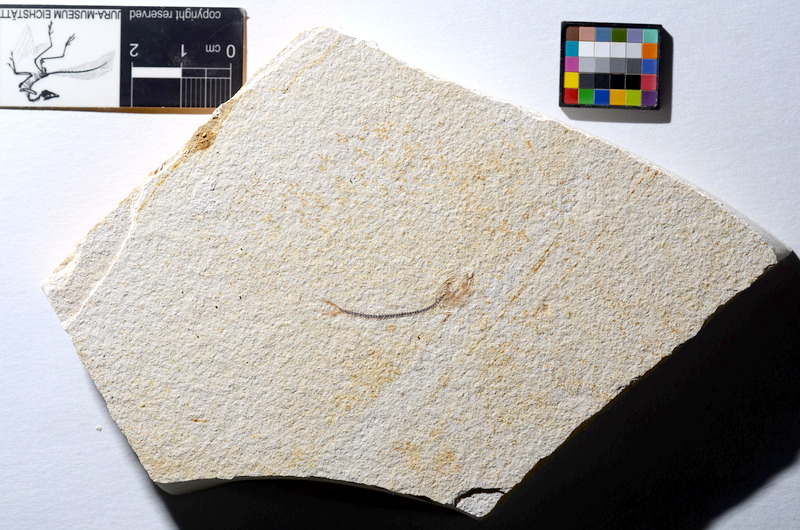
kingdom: Animalia
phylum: Chordata
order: Salmoniformes
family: Orthogonikleithridae
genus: Orthogonikleithrus
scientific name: Orthogonikleithrus hoelli
